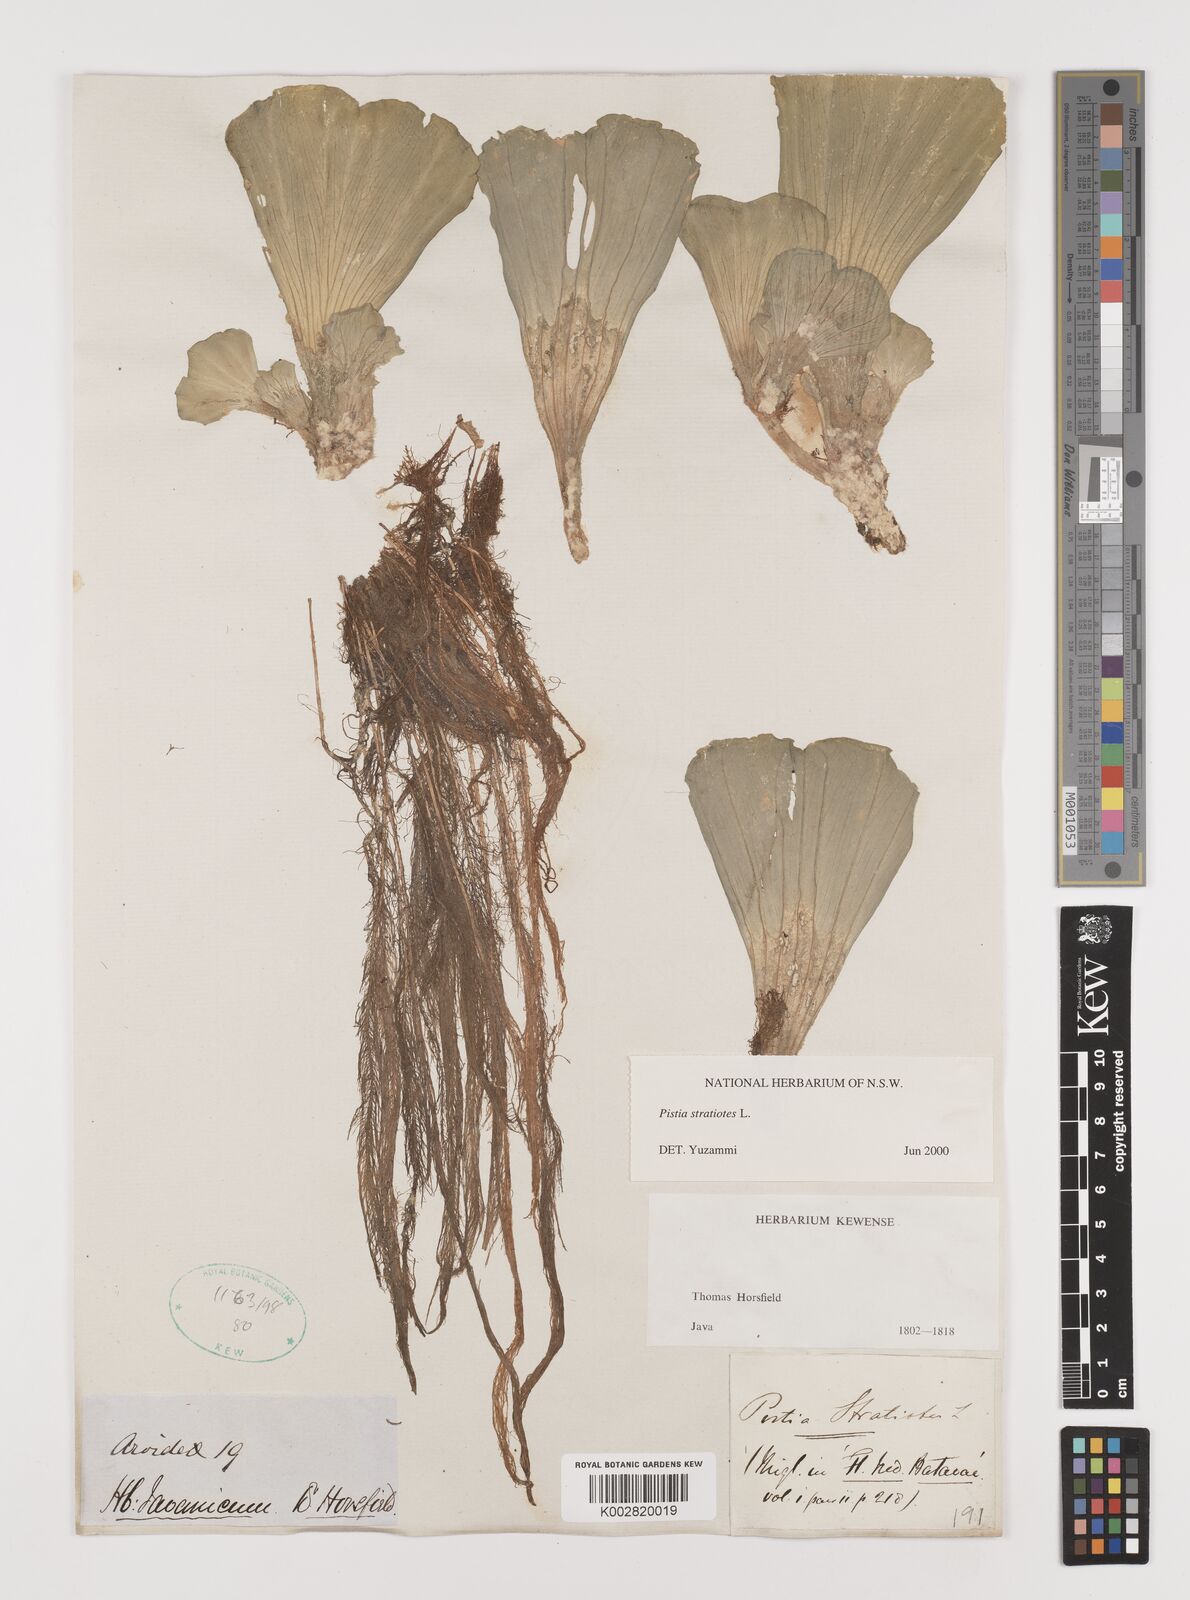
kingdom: Plantae
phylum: Tracheophyta
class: Liliopsida
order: Alismatales
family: Araceae
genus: Pistia
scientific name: Pistia stratiotes
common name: Water lettuce
